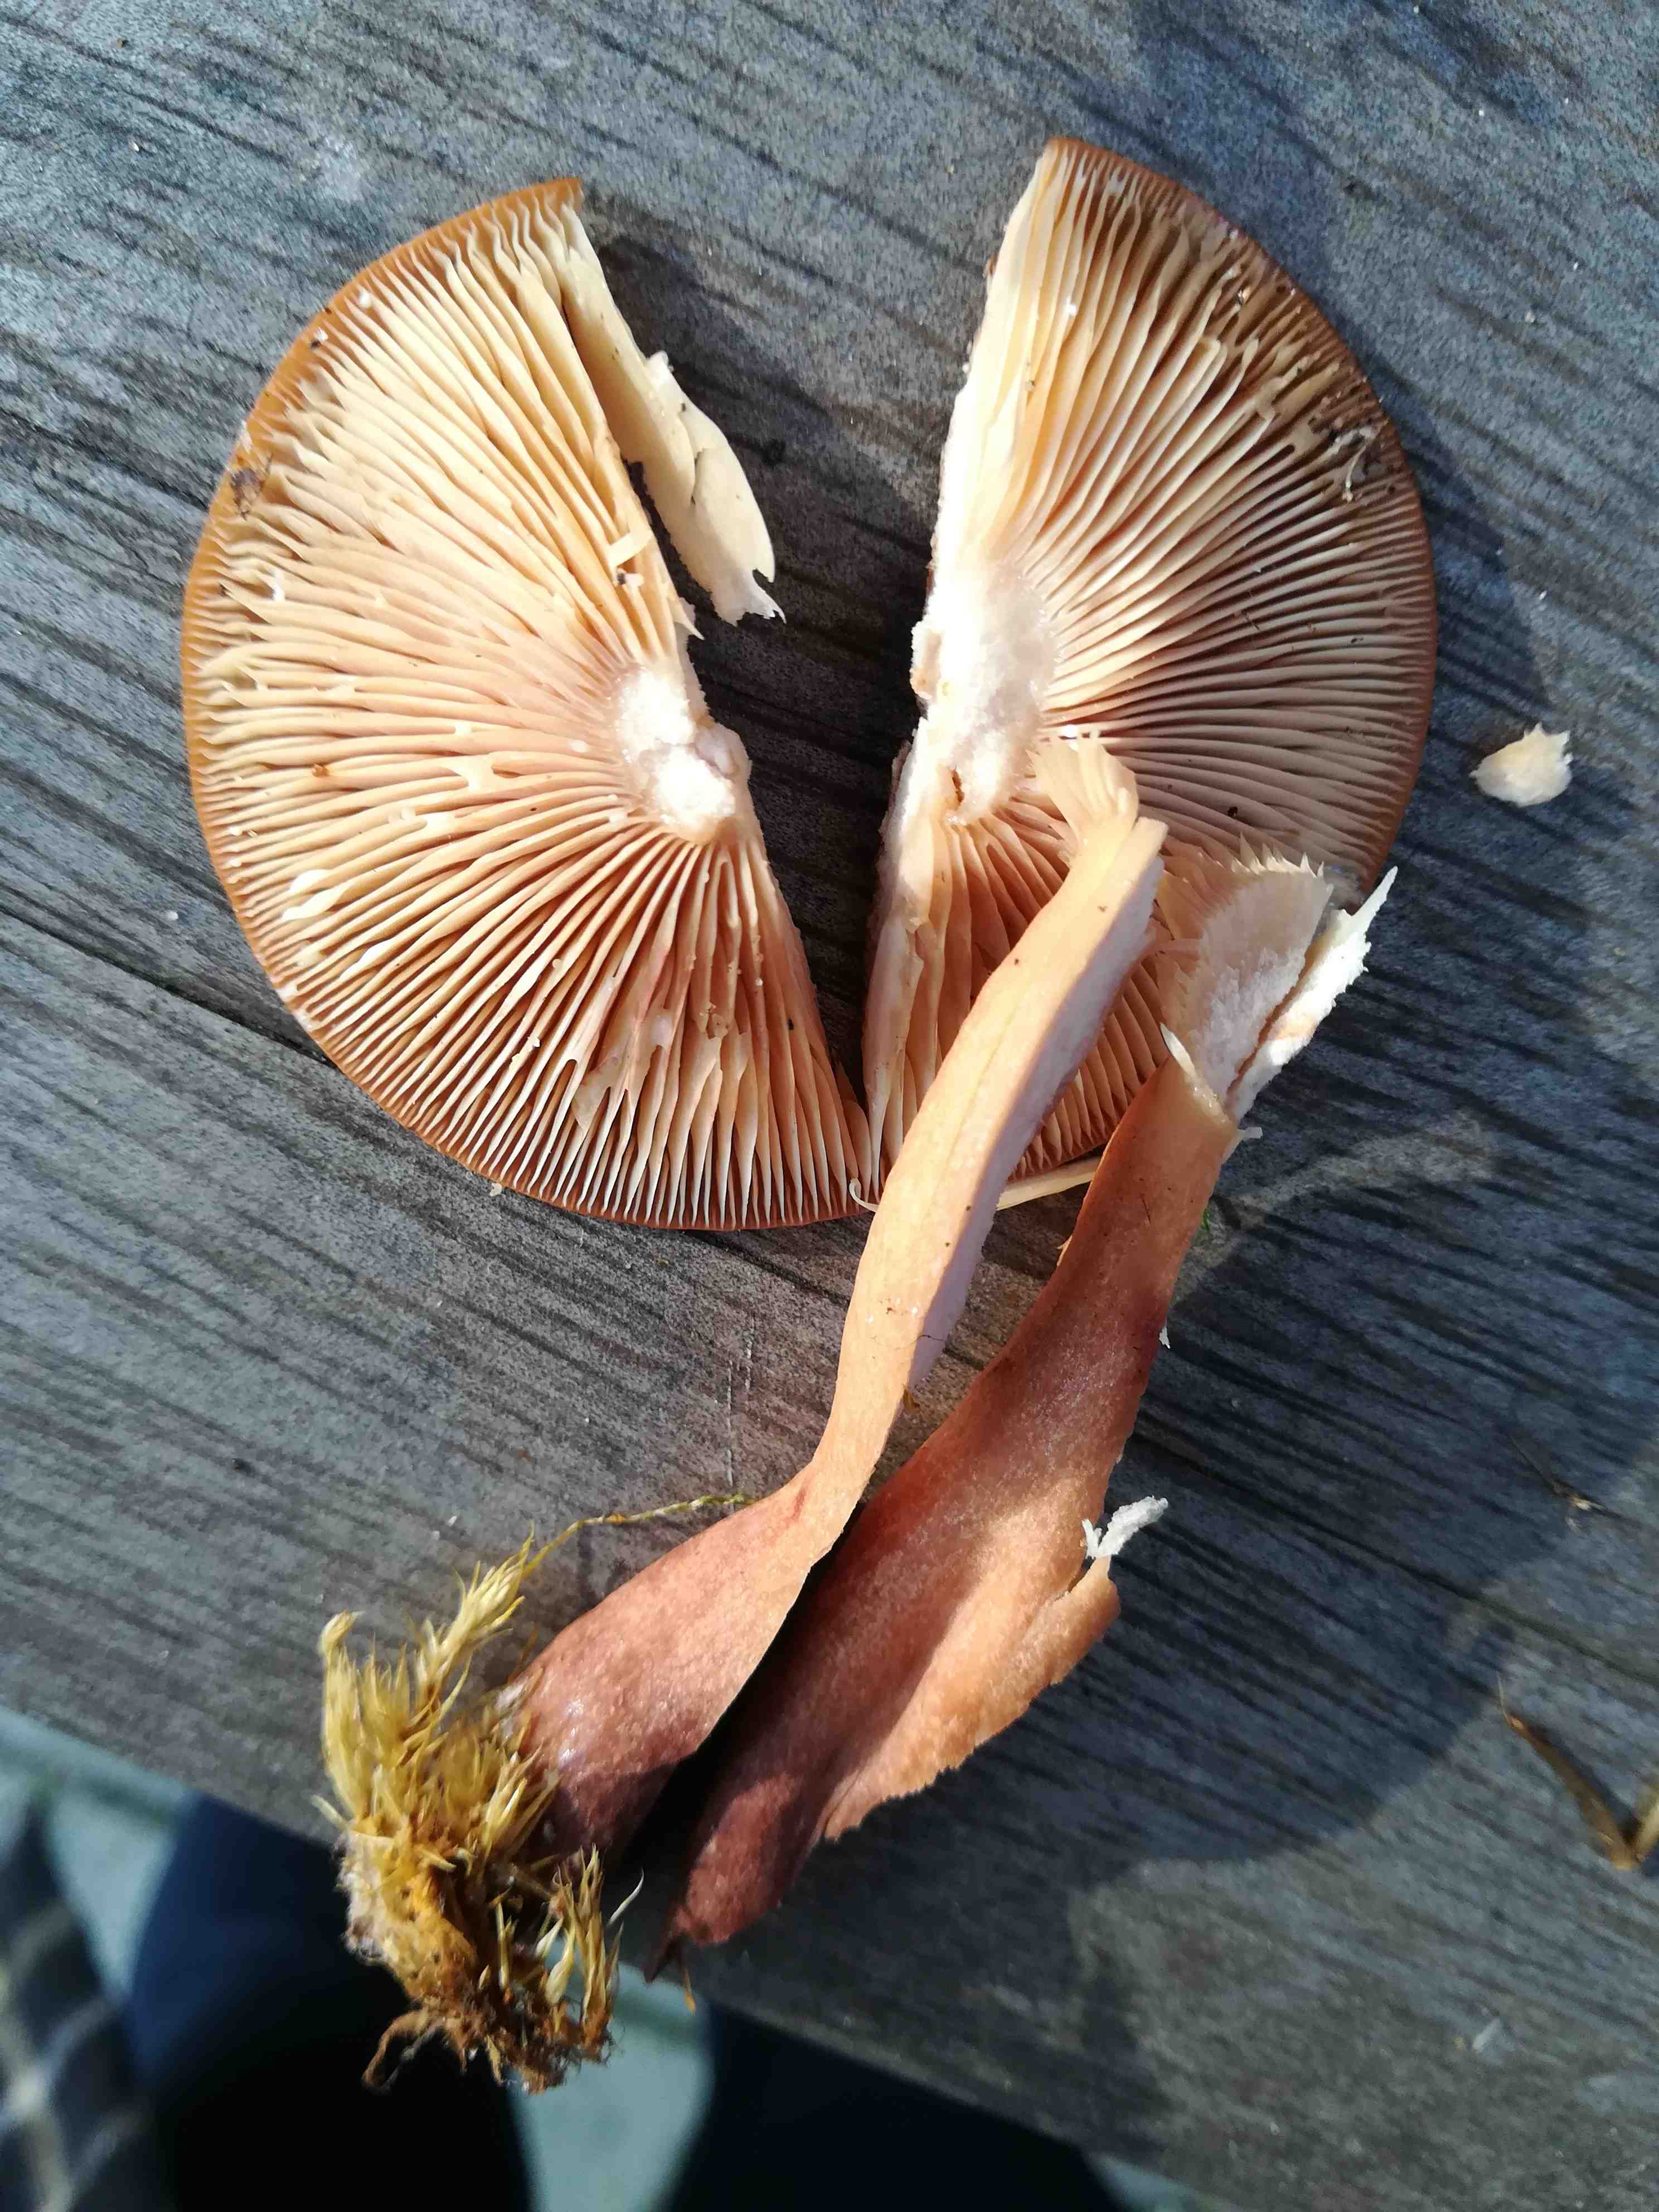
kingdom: Fungi
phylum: Basidiomycota
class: Agaricomycetes
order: Russulales
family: Russulaceae
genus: Lactarius
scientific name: Lactarius quietus
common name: ege-mælkehat
